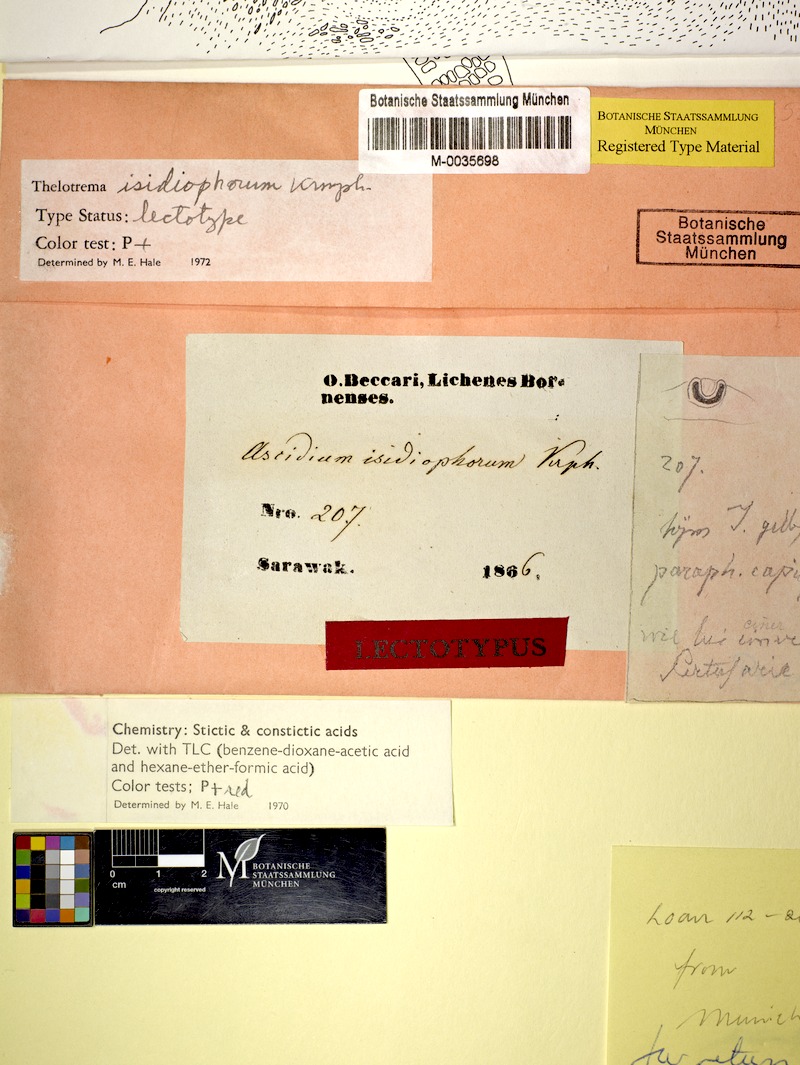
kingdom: Fungi
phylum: Ascomycota
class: Lecanoromycetes
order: Ostropales
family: Graphidaceae
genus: Thelotrema
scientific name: Thelotrema isidiophorum
